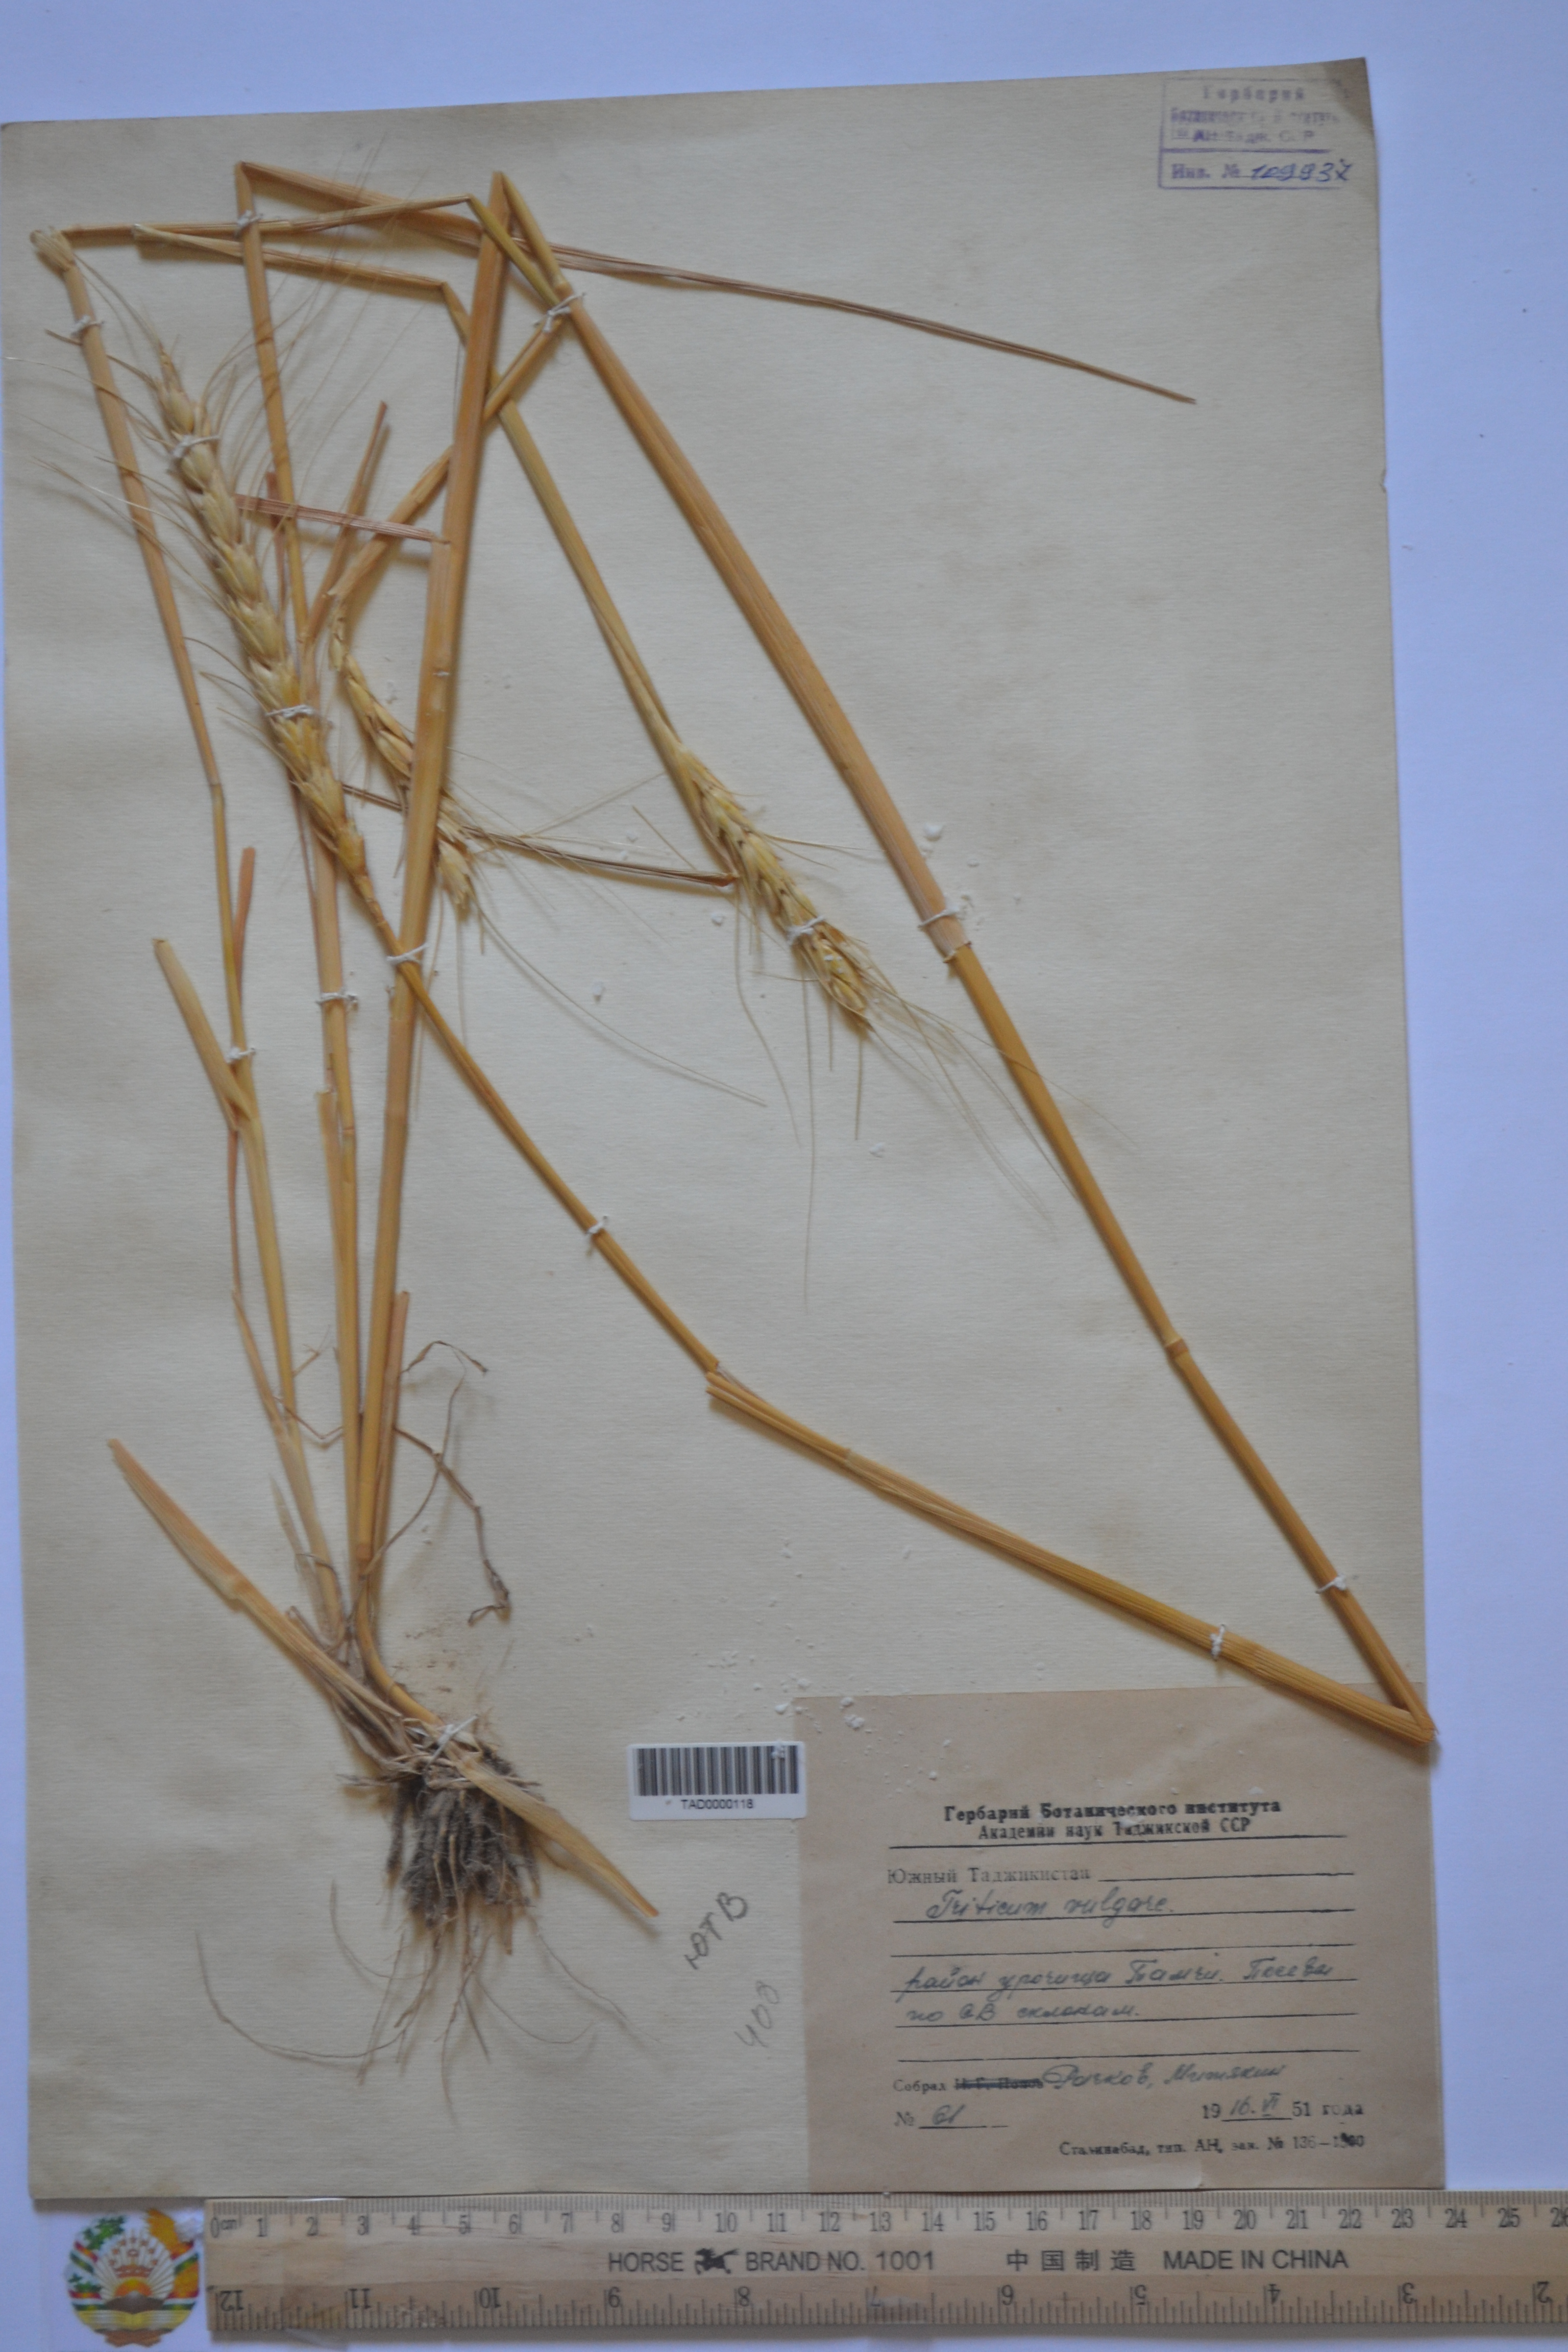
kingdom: Plantae
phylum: Tracheophyta
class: Liliopsida
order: Poales
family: Poaceae
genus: Hordeum
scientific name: Hordeum vulgare
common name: Common barley
